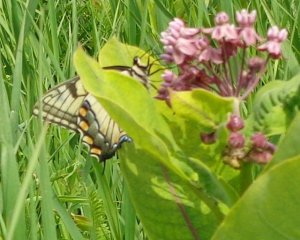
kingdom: Animalia
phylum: Arthropoda
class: Insecta
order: Lepidoptera
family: Papilionidae
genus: Pterourus
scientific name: Pterourus glaucus
